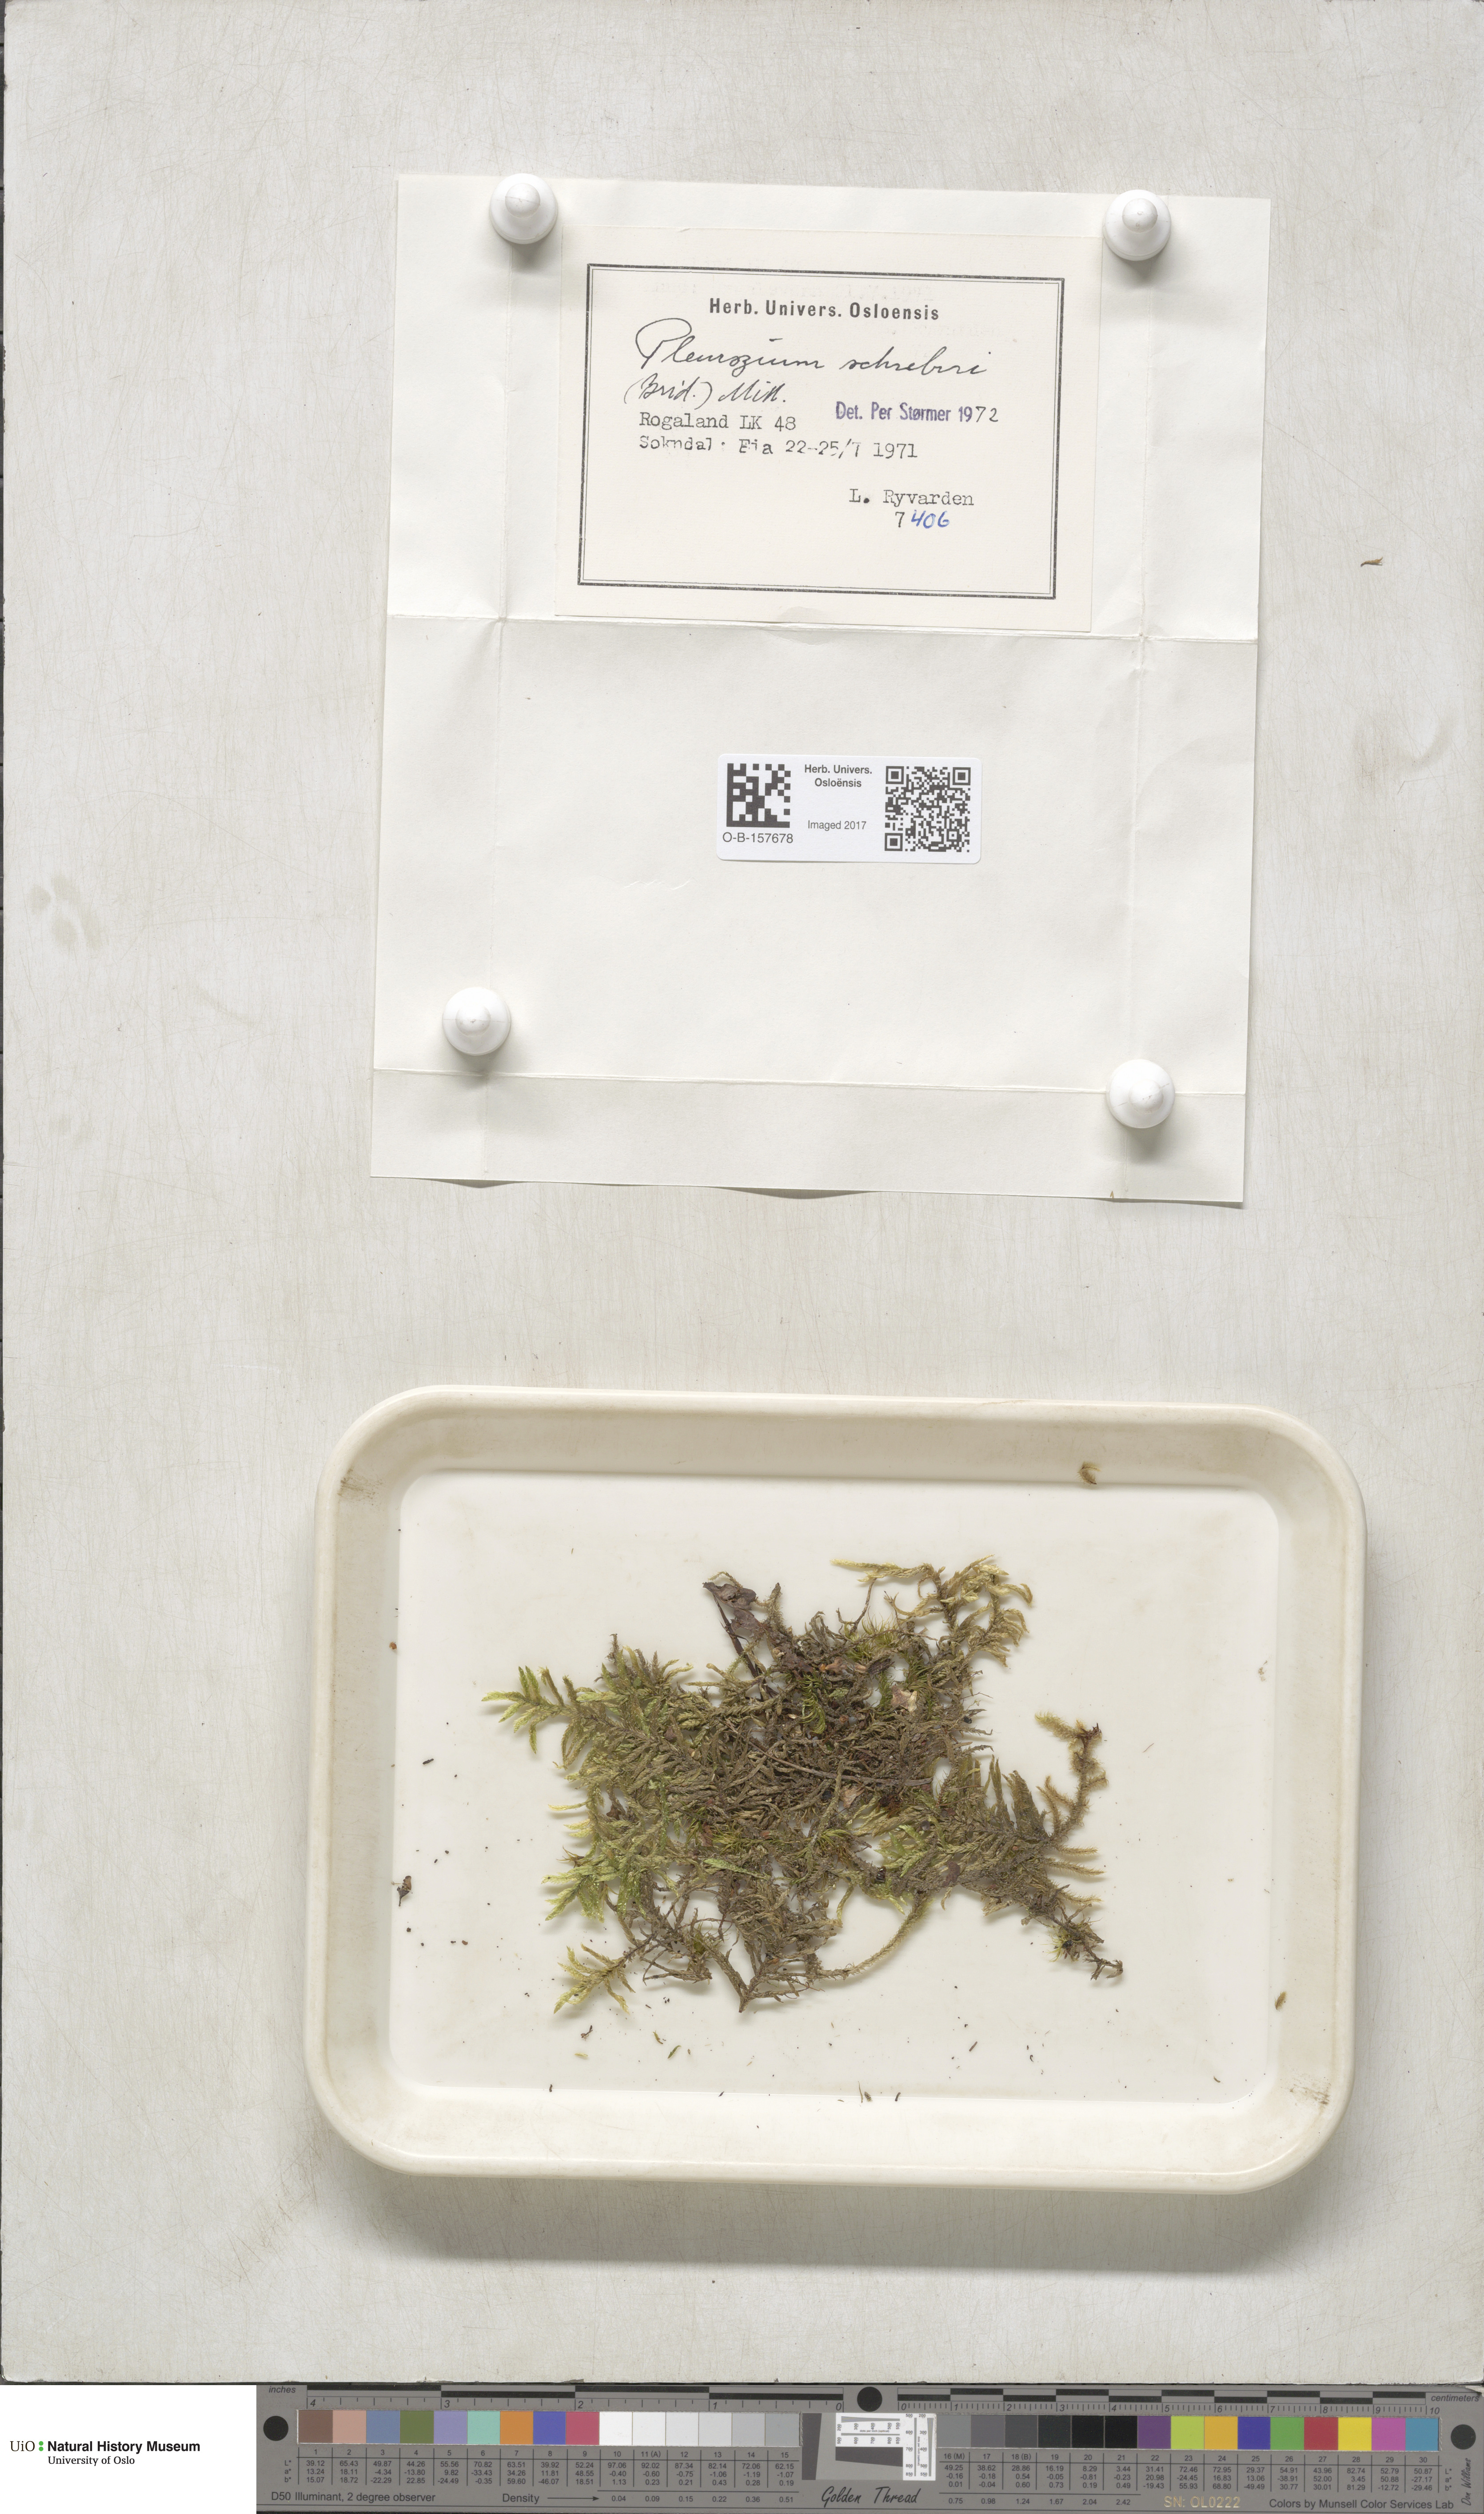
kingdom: Plantae
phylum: Bryophyta
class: Bryopsida
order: Hypnales
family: Hylocomiaceae
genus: Pleurozium
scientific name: Pleurozium schreberi
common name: Red-stemmed feather moss
